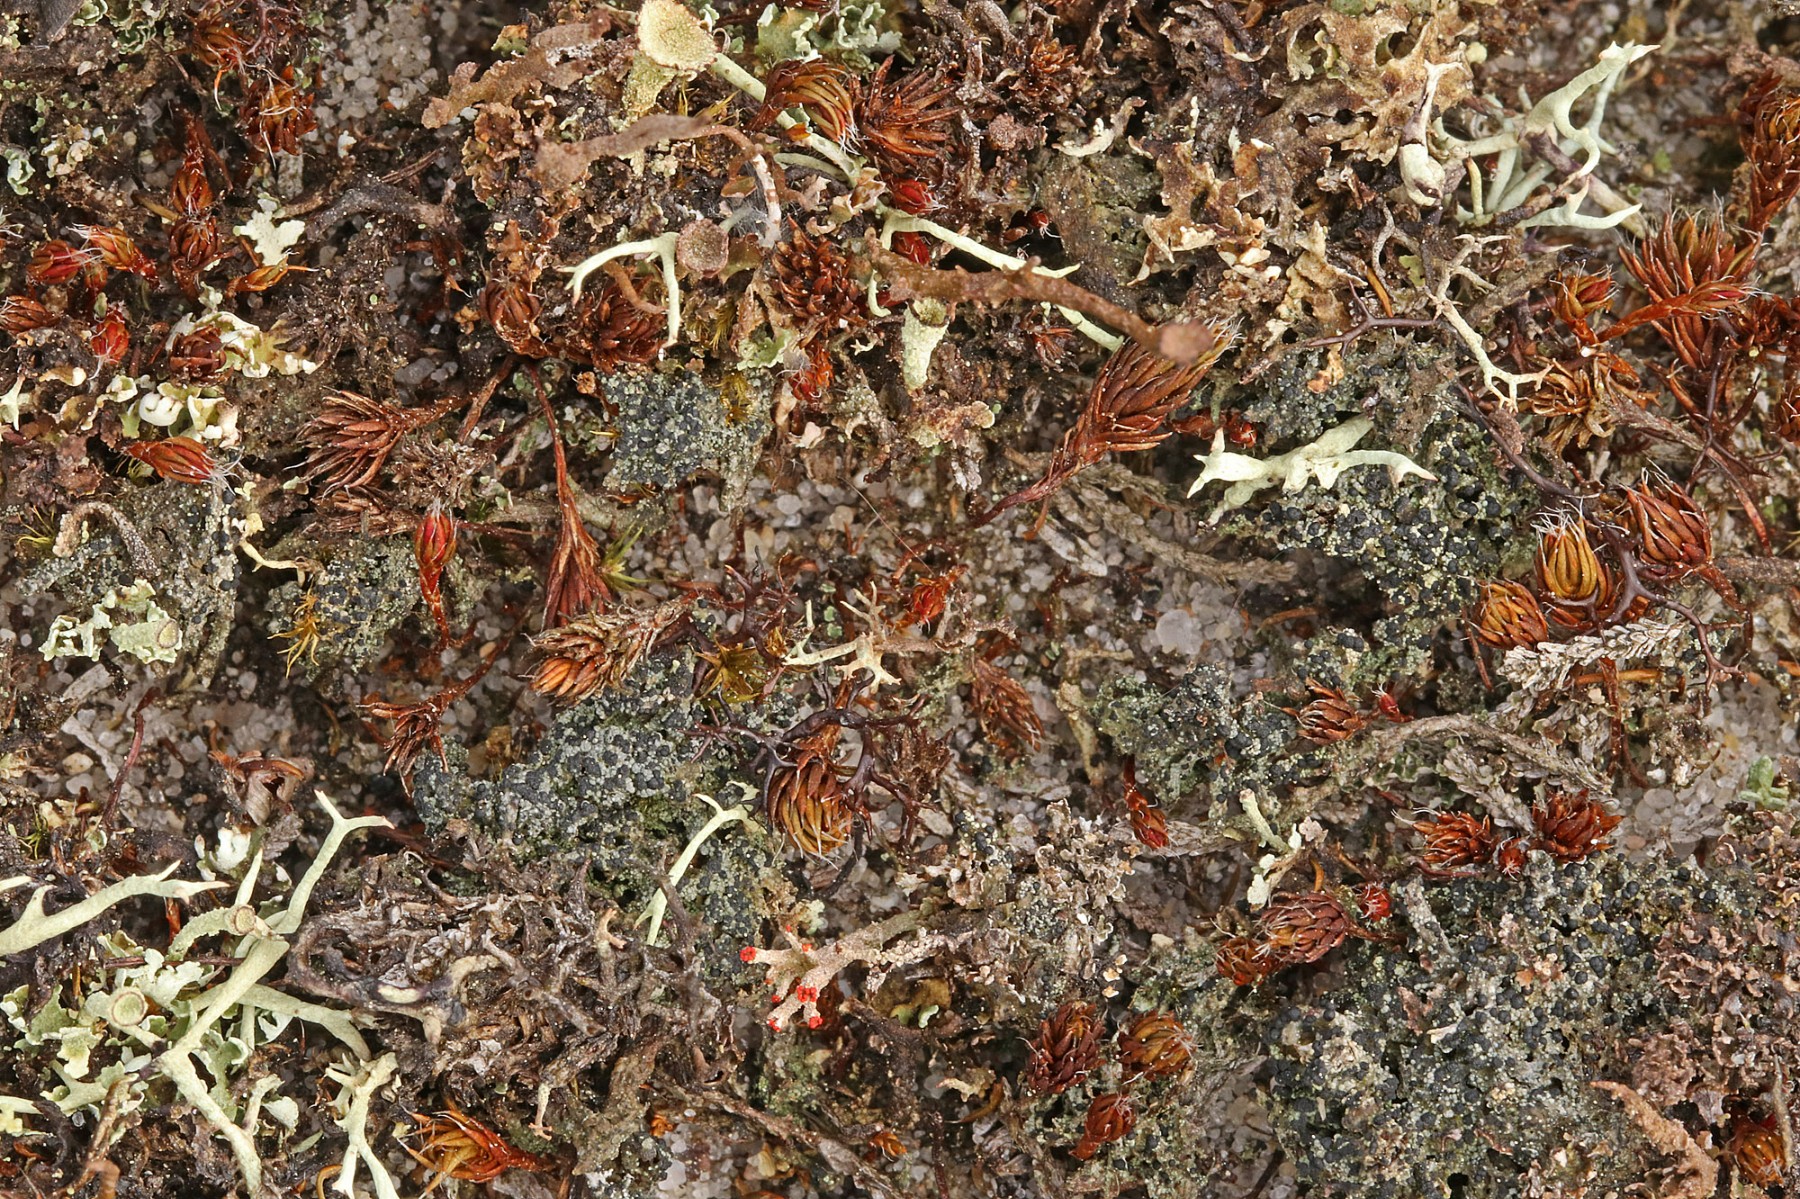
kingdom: Fungi
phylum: Ascomycota
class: Lecanoromycetes
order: Lecanorales
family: Byssolomataceae
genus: Micarea
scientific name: Micarea lignaria
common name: tørve-knaplav
